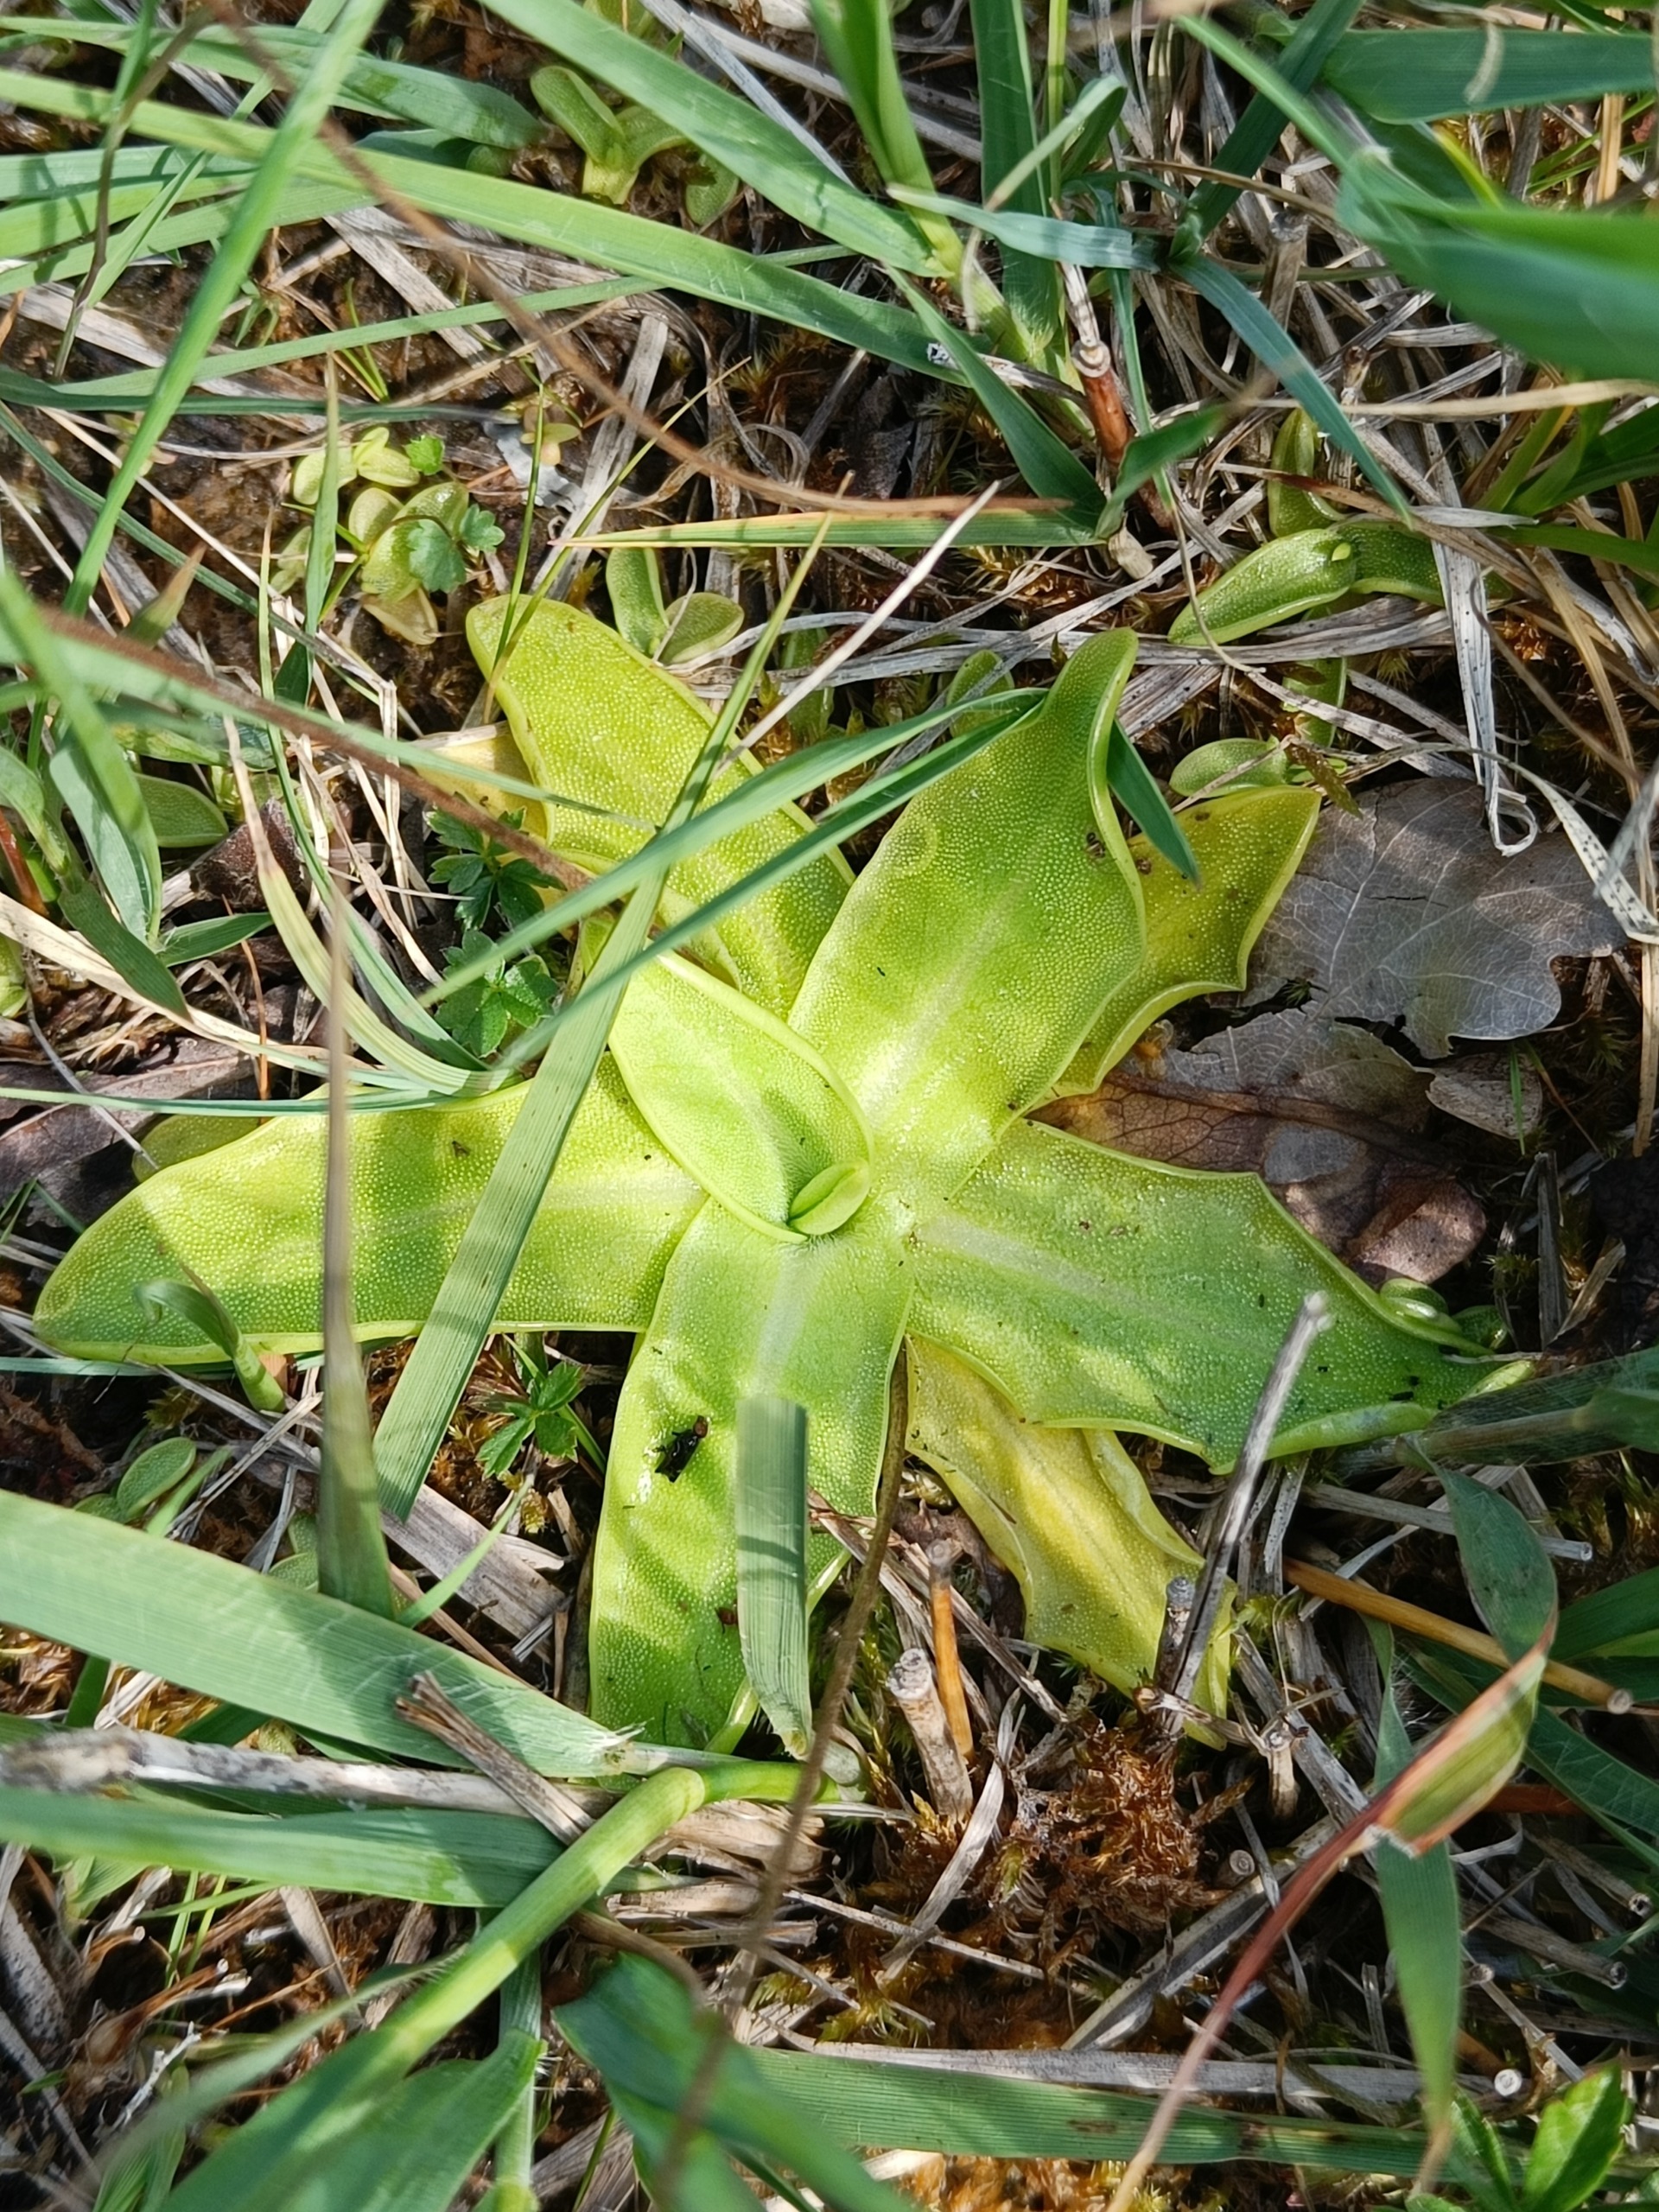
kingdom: Plantae
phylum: Tracheophyta
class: Magnoliopsida
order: Lamiales
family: Lentibulariaceae
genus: Pinguicula
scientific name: Pinguicula vulgaris
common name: Vibefedt
